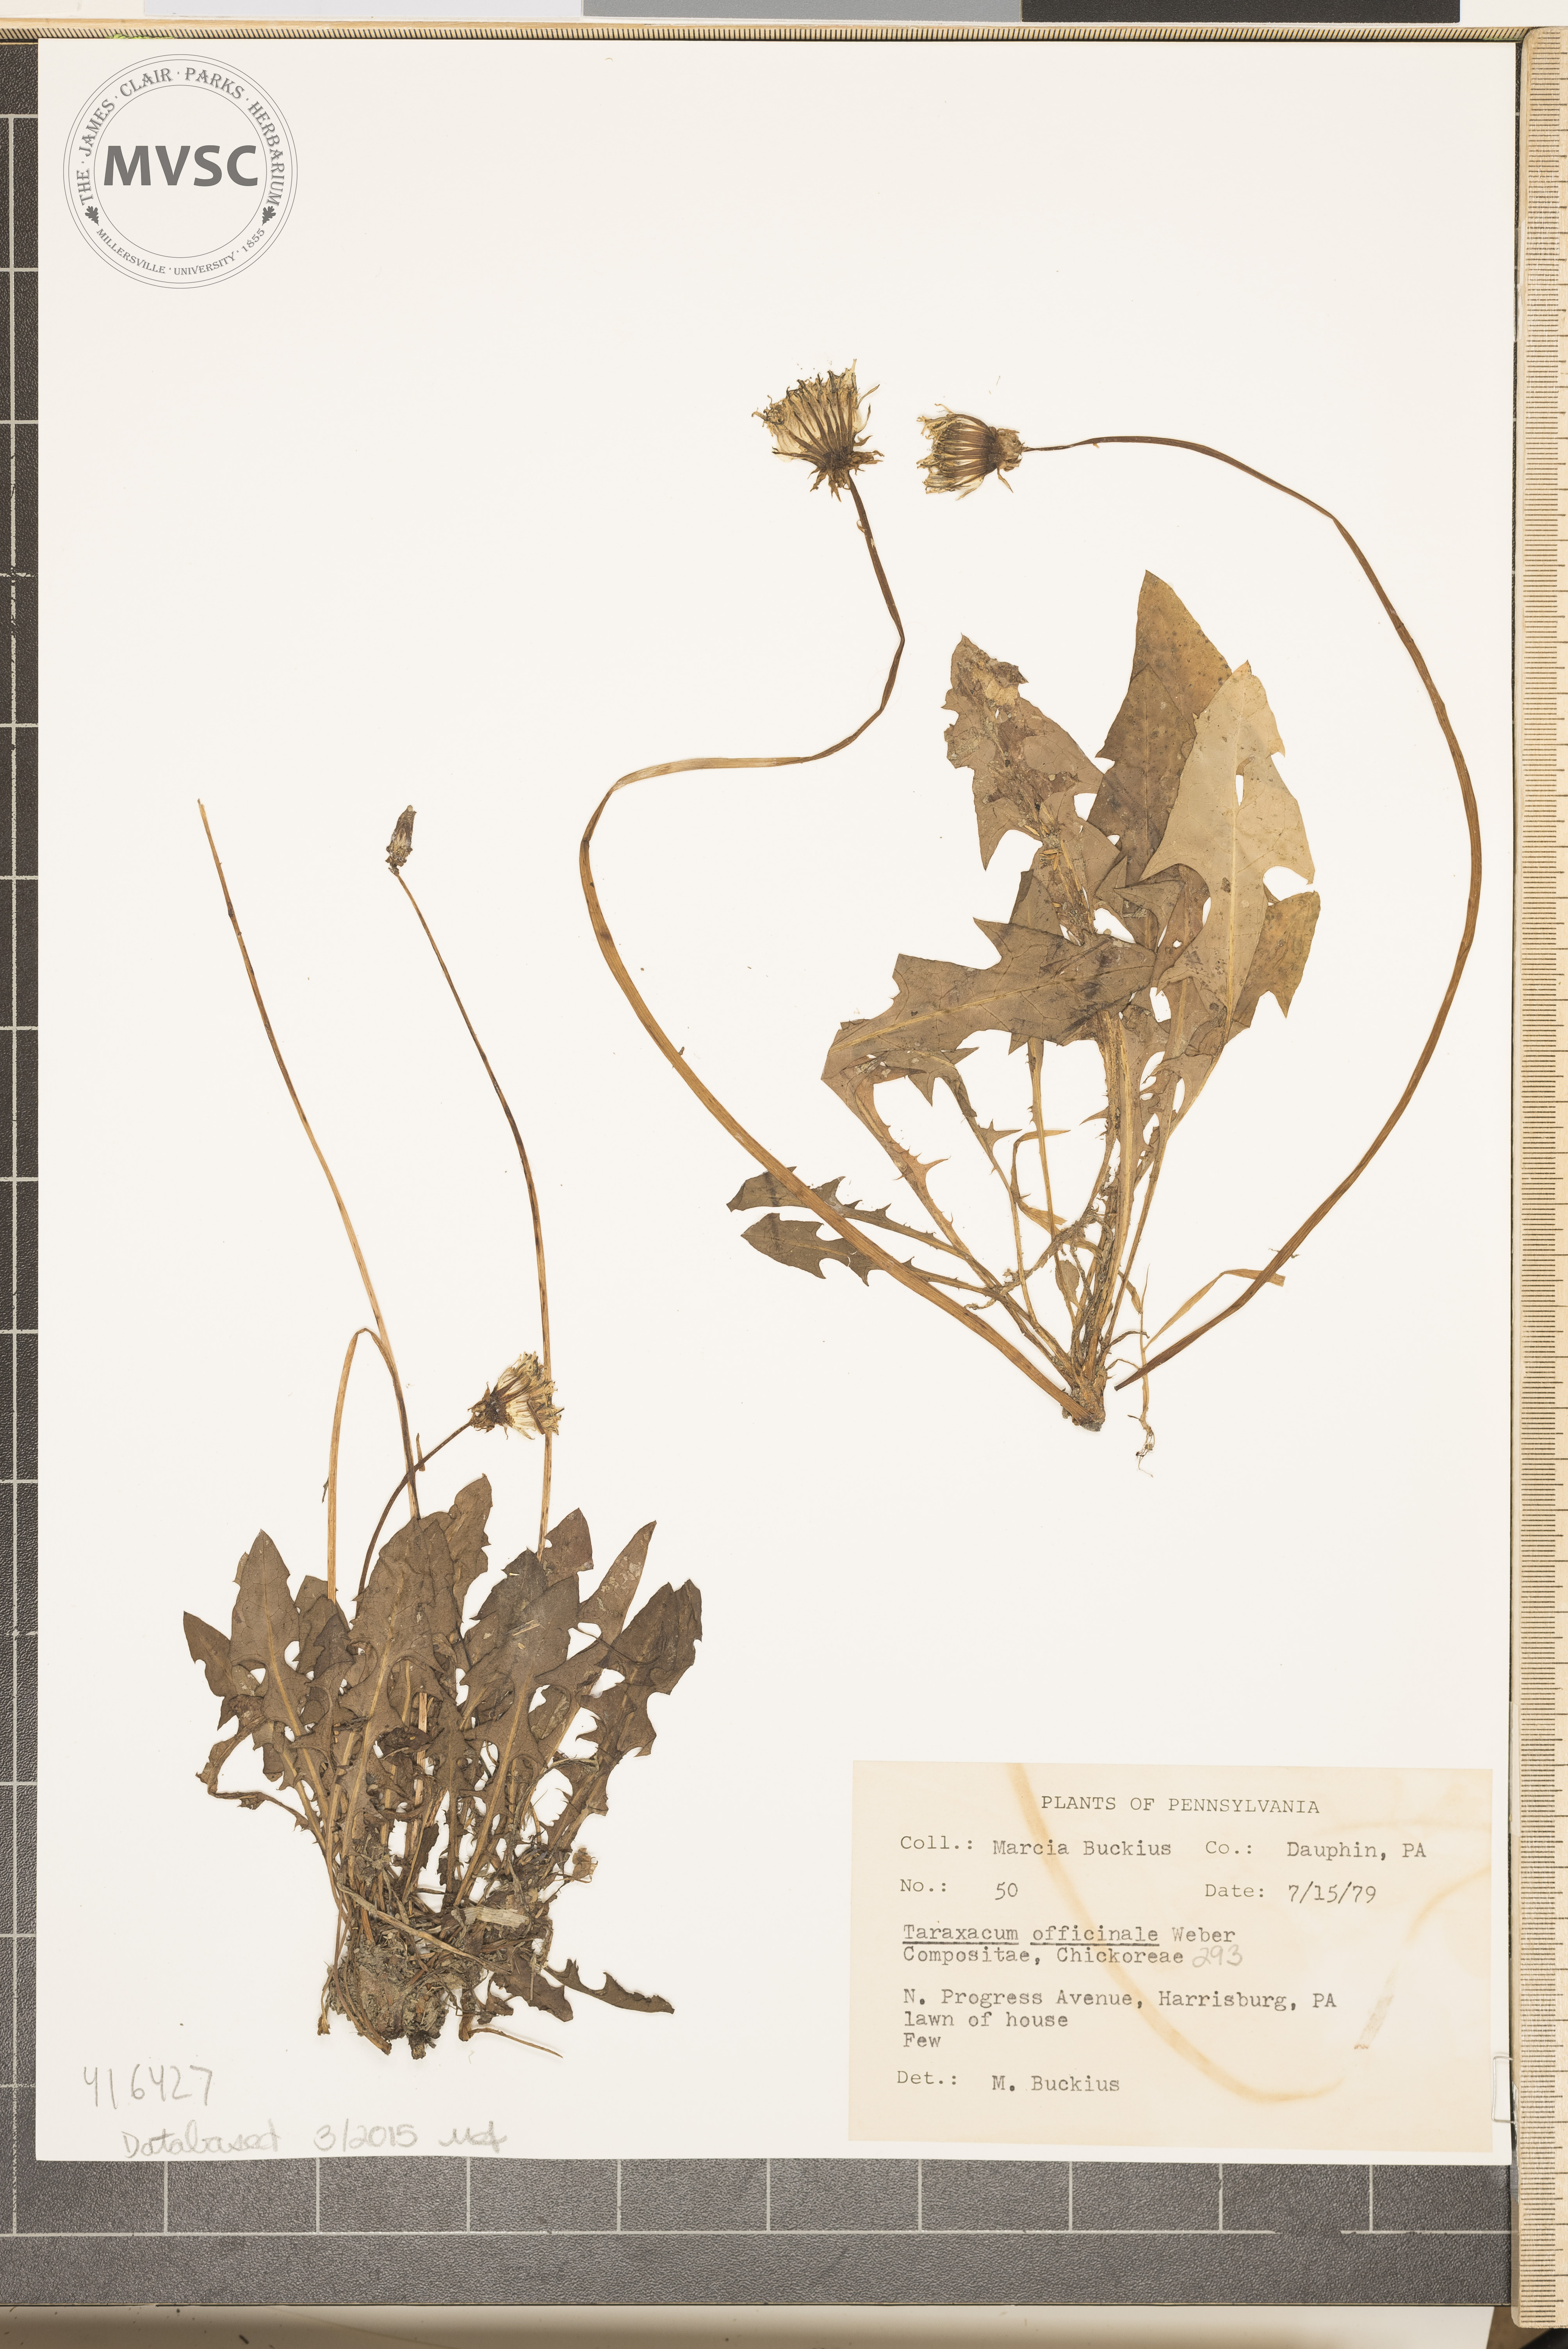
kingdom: Plantae
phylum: Tracheophyta
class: Magnoliopsida
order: Asterales
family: Asteraceae
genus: Taraxacum
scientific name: Taraxacum officinale
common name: Dandelion
